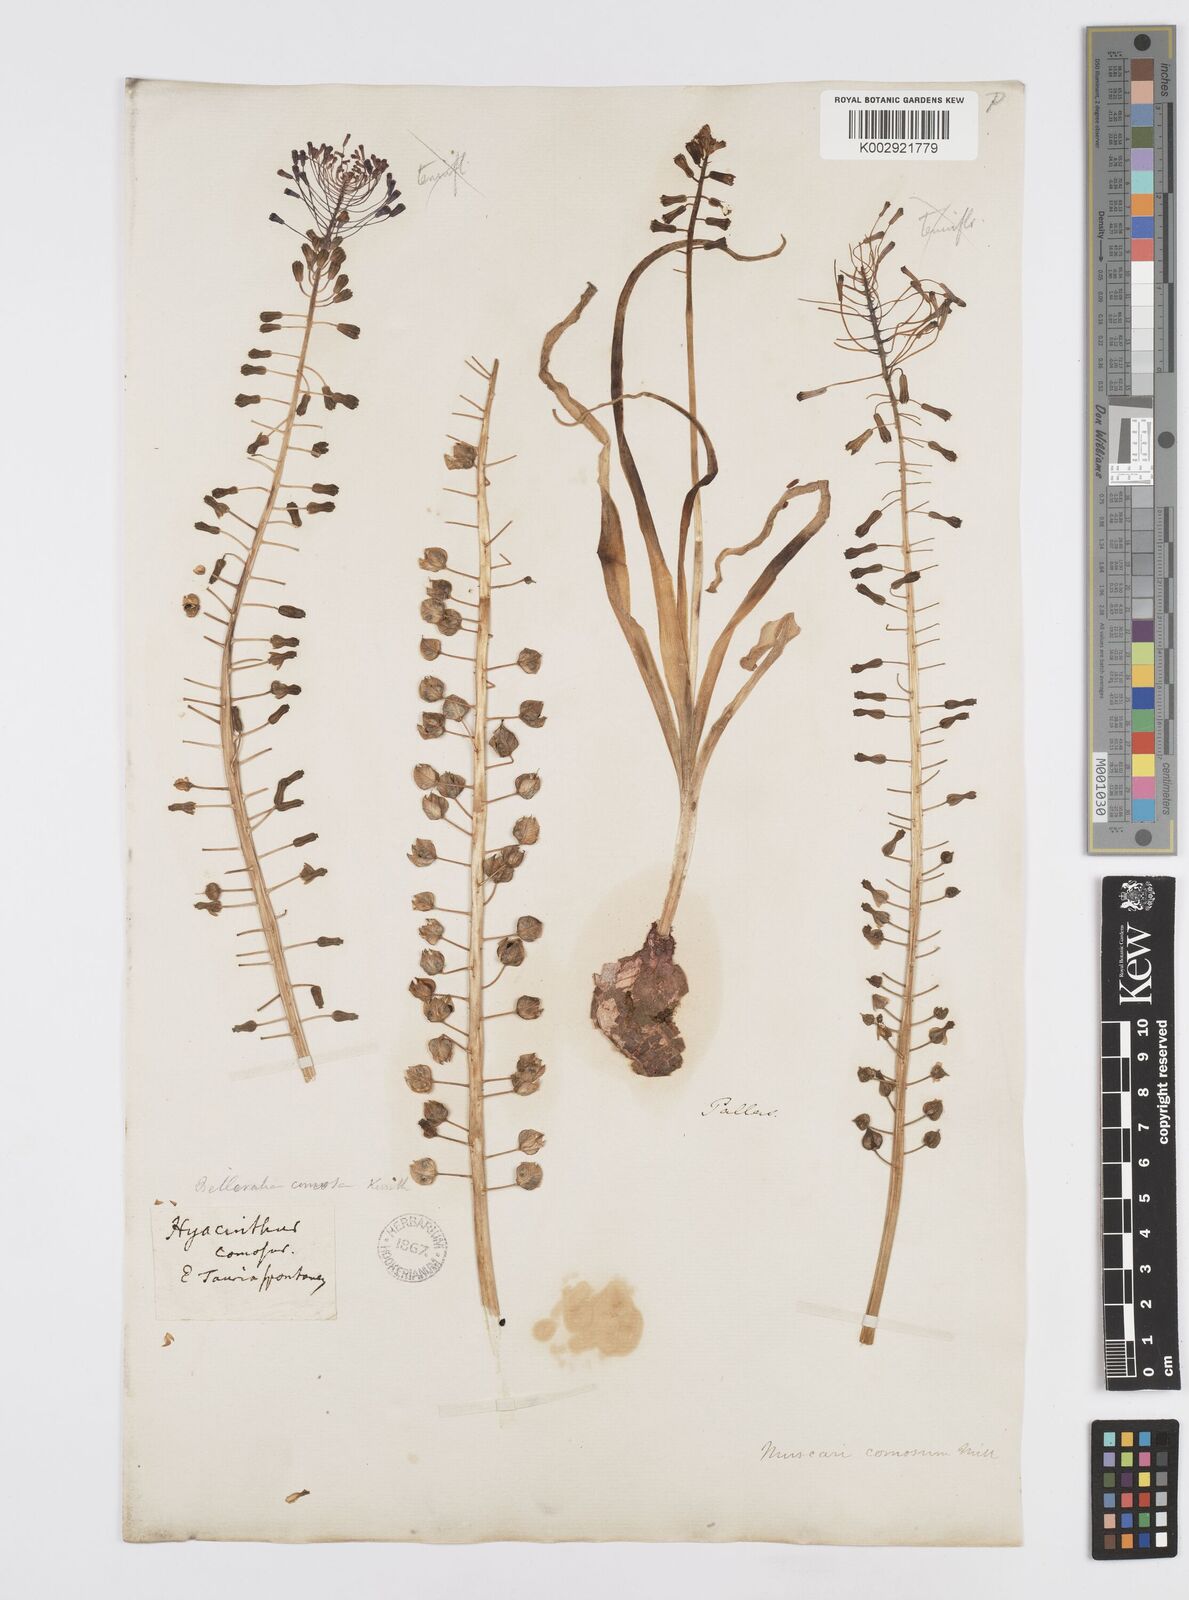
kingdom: Plantae
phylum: Tracheophyta
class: Liliopsida
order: Asparagales
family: Asparagaceae
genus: Muscari
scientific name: Muscari comosum
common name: Tassel hyacinth
